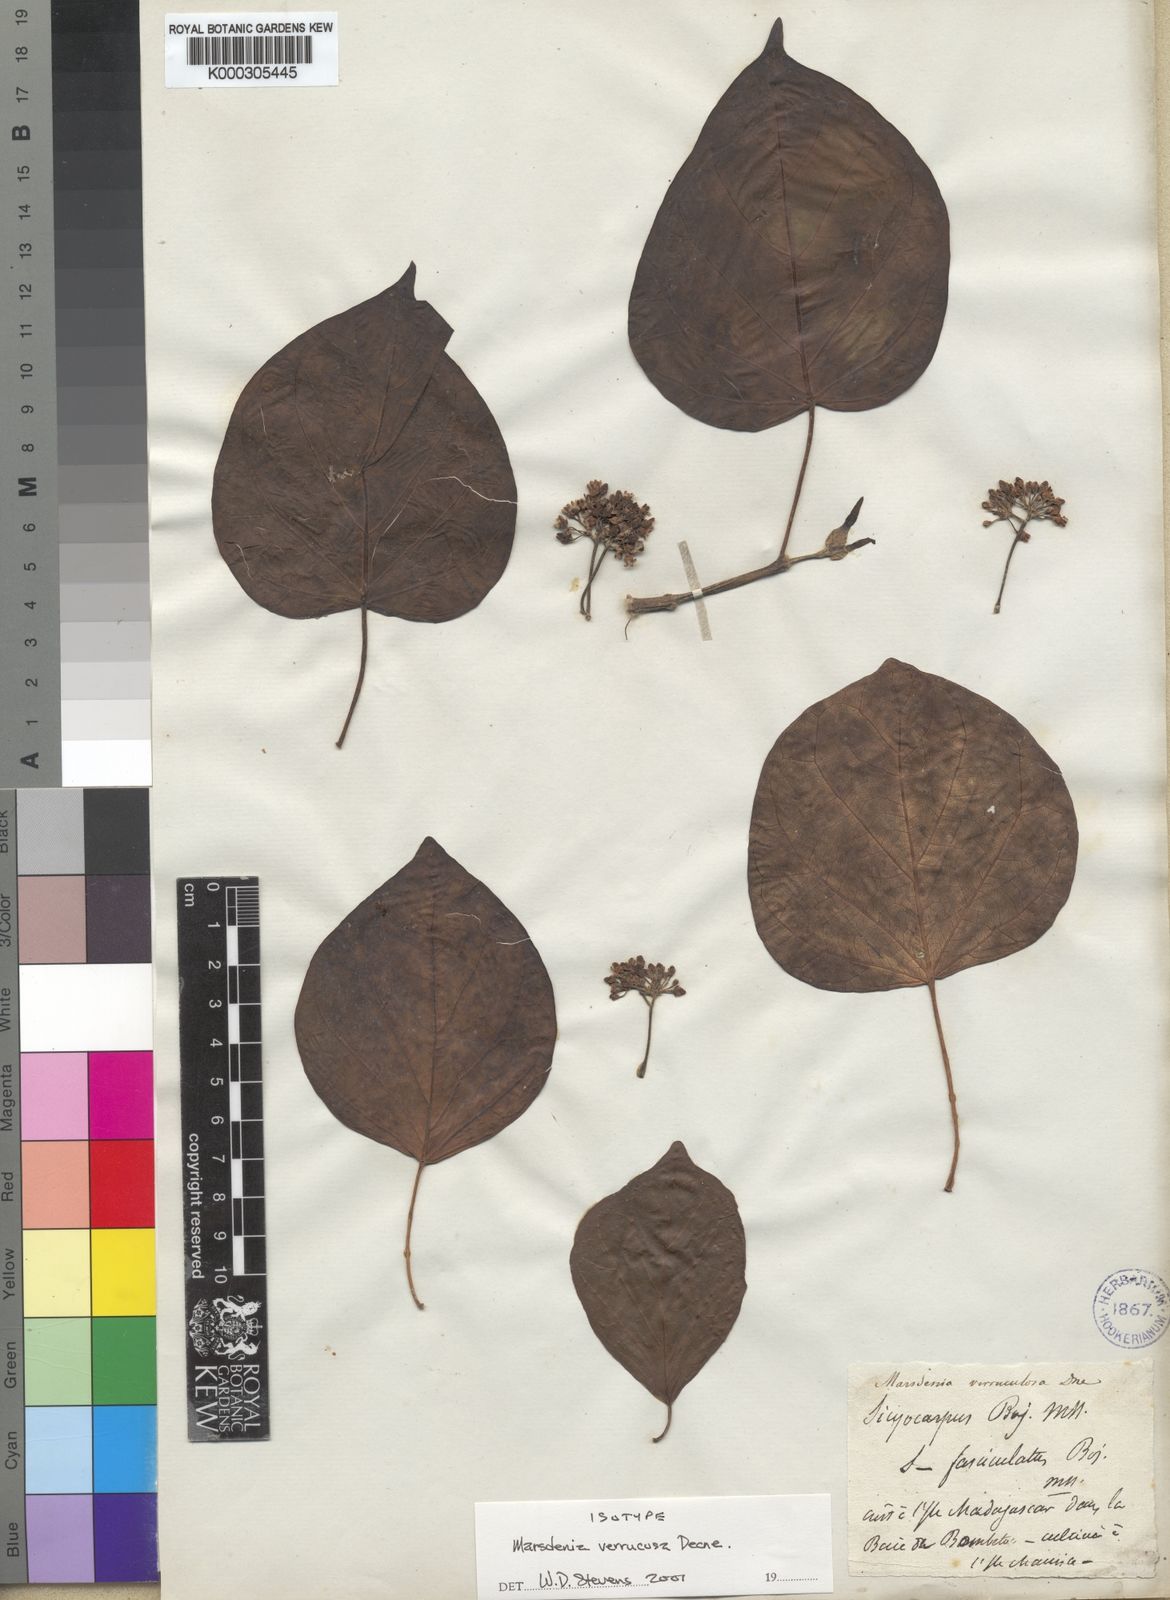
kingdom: Plantae
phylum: Tracheophyta
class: Magnoliopsida
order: Gentianales
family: Apocynaceae
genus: Sicyocarpus
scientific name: Sicyocarpus verrucosus
